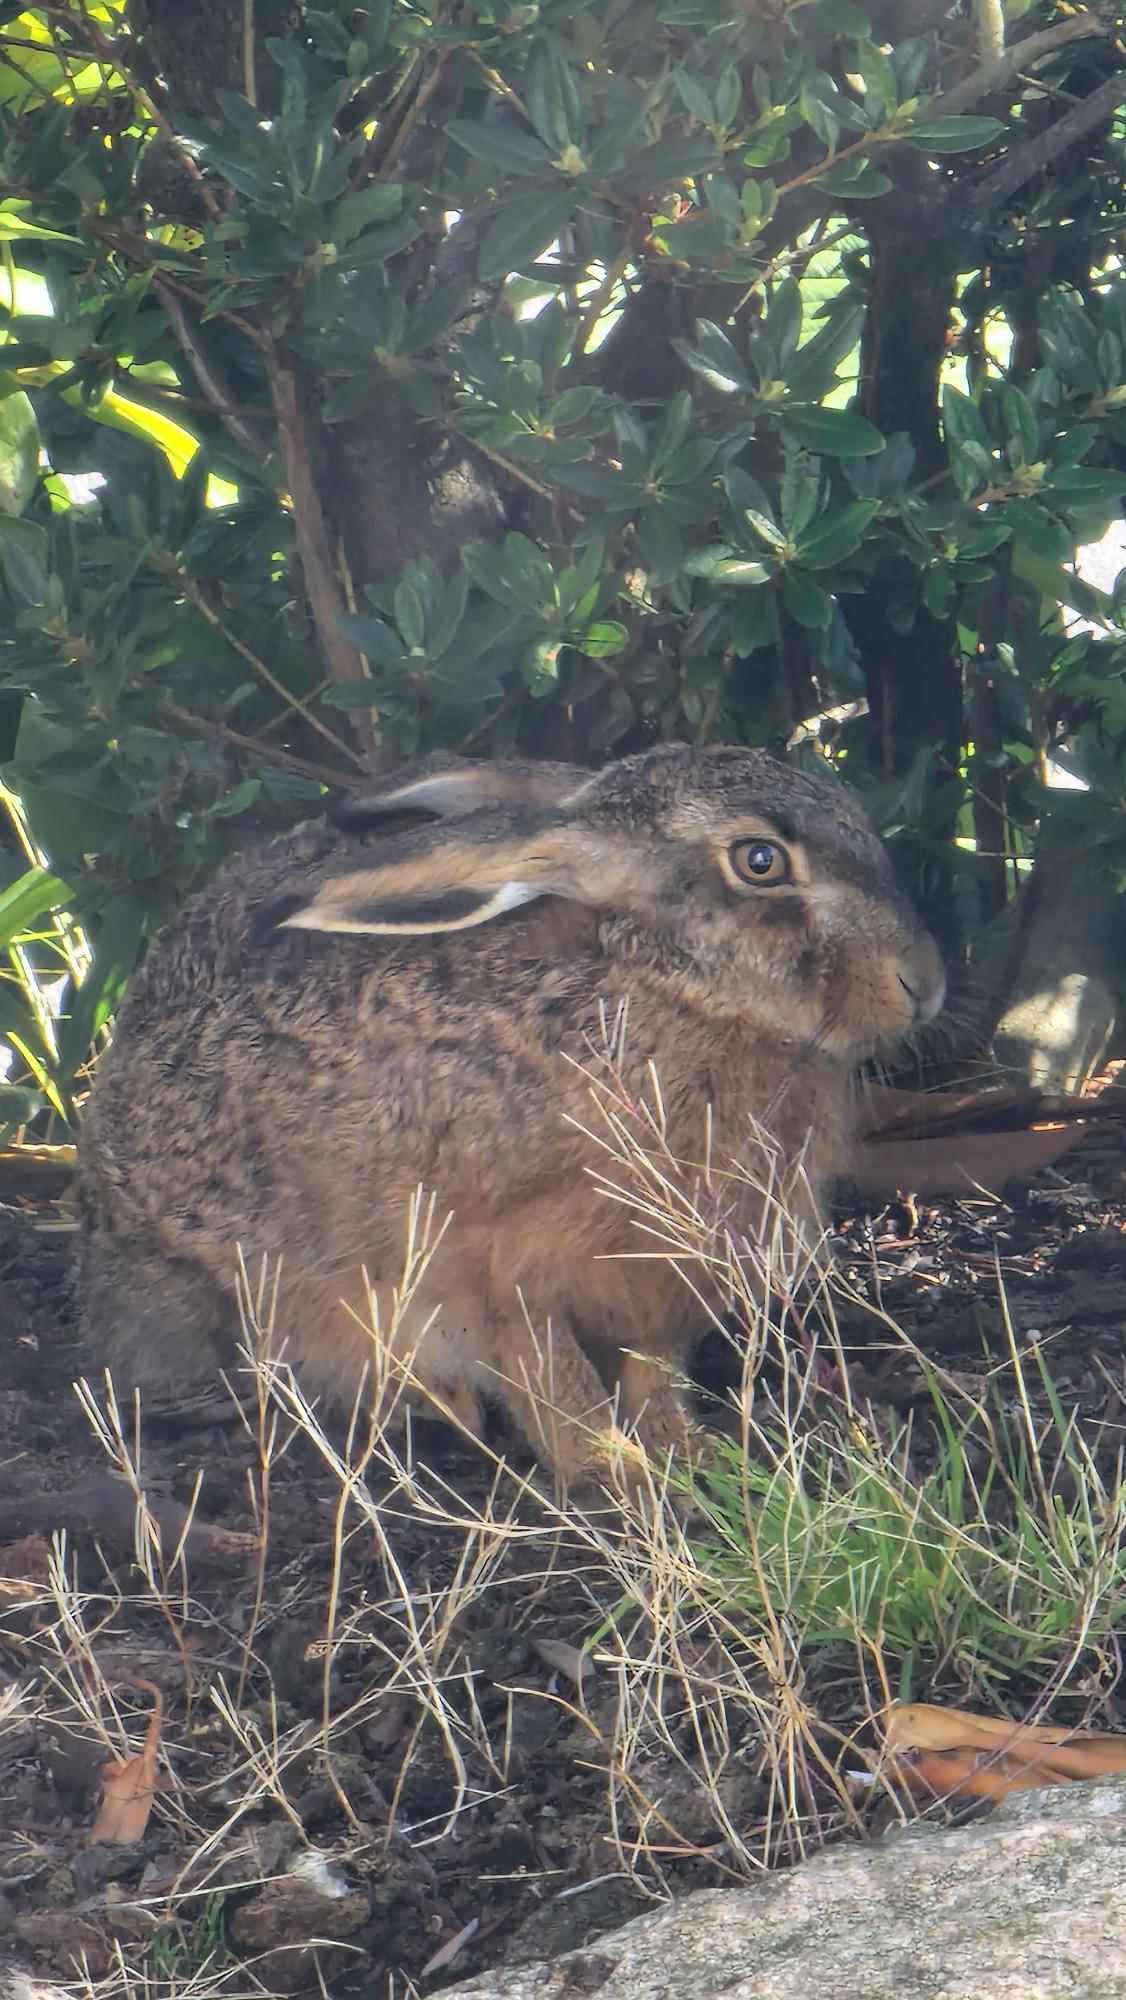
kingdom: Animalia
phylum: Chordata
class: Mammalia
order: Lagomorpha
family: Leporidae
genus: Lepus
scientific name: Lepus europaeus
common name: Hare
